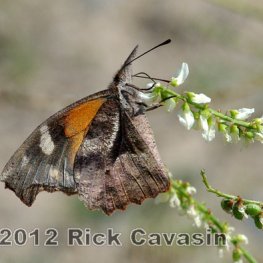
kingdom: Animalia
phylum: Arthropoda
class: Insecta
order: Lepidoptera
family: Nymphalidae
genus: Libytheana
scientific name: Libytheana carinenta
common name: American Snout
